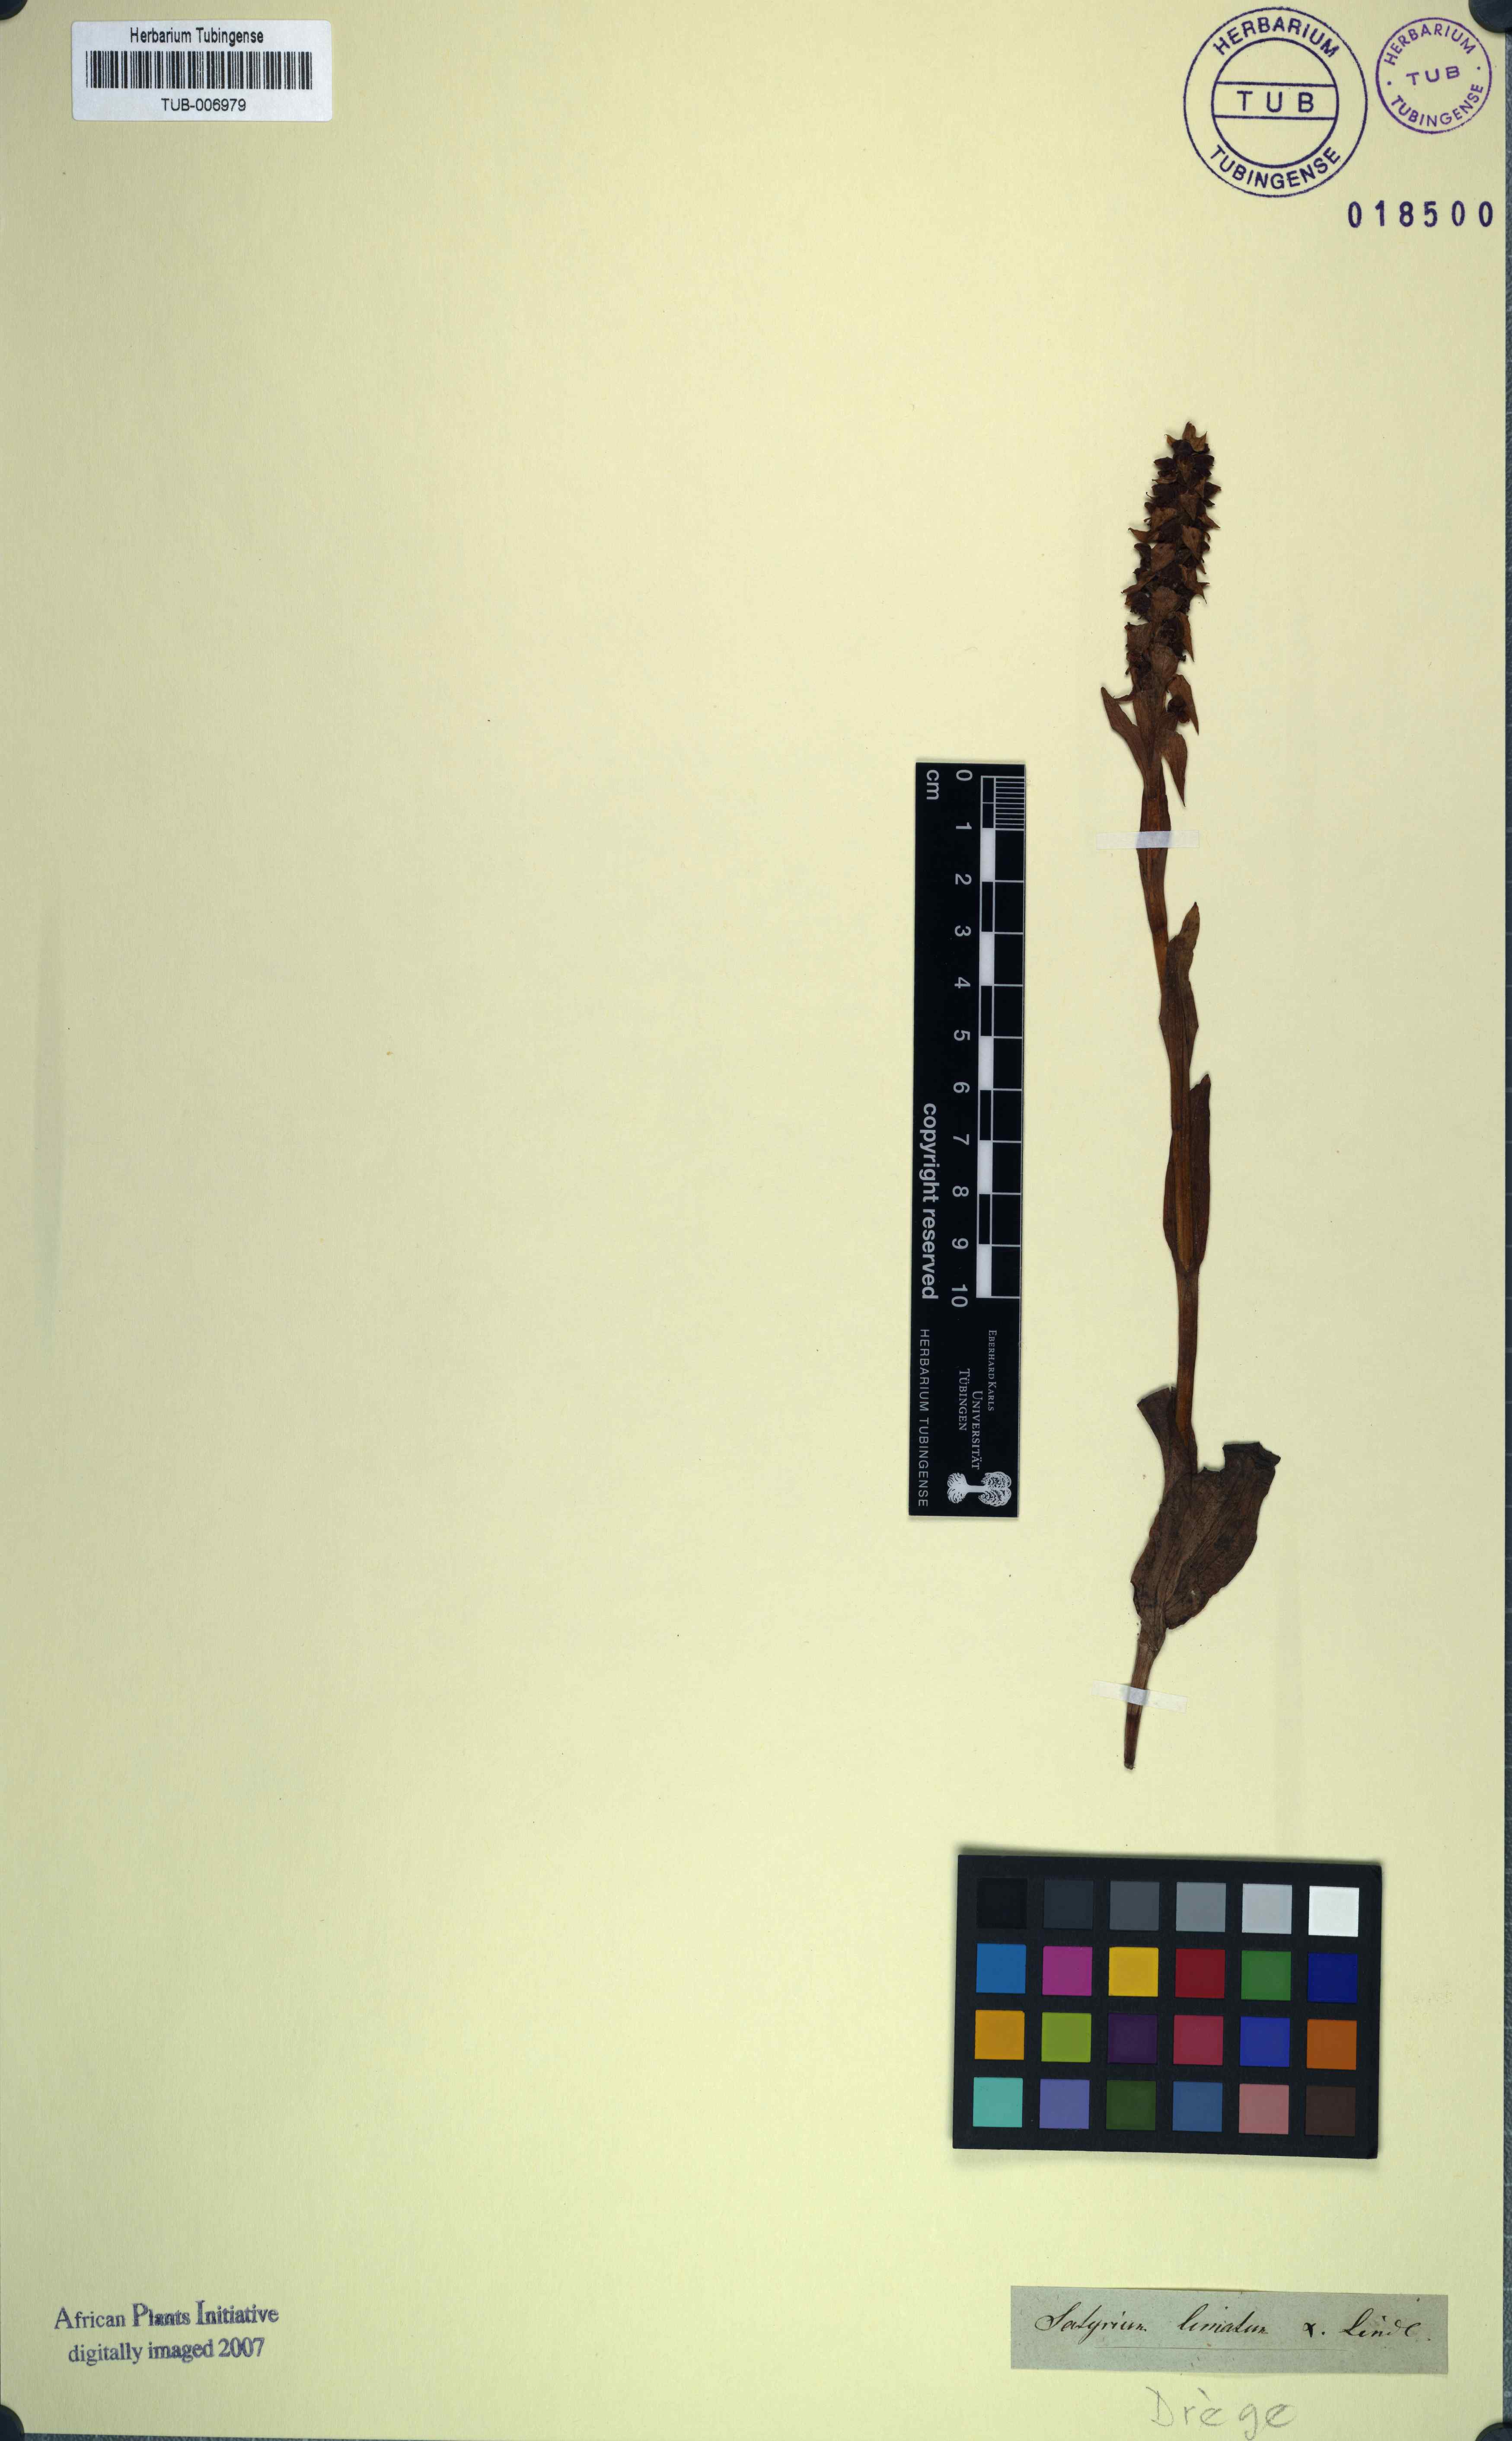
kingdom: Plantae
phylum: Tracheophyta
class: Liliopsida
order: Asparagales
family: Orchidaceae
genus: Satyrium
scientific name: Satyrium bracteatum
